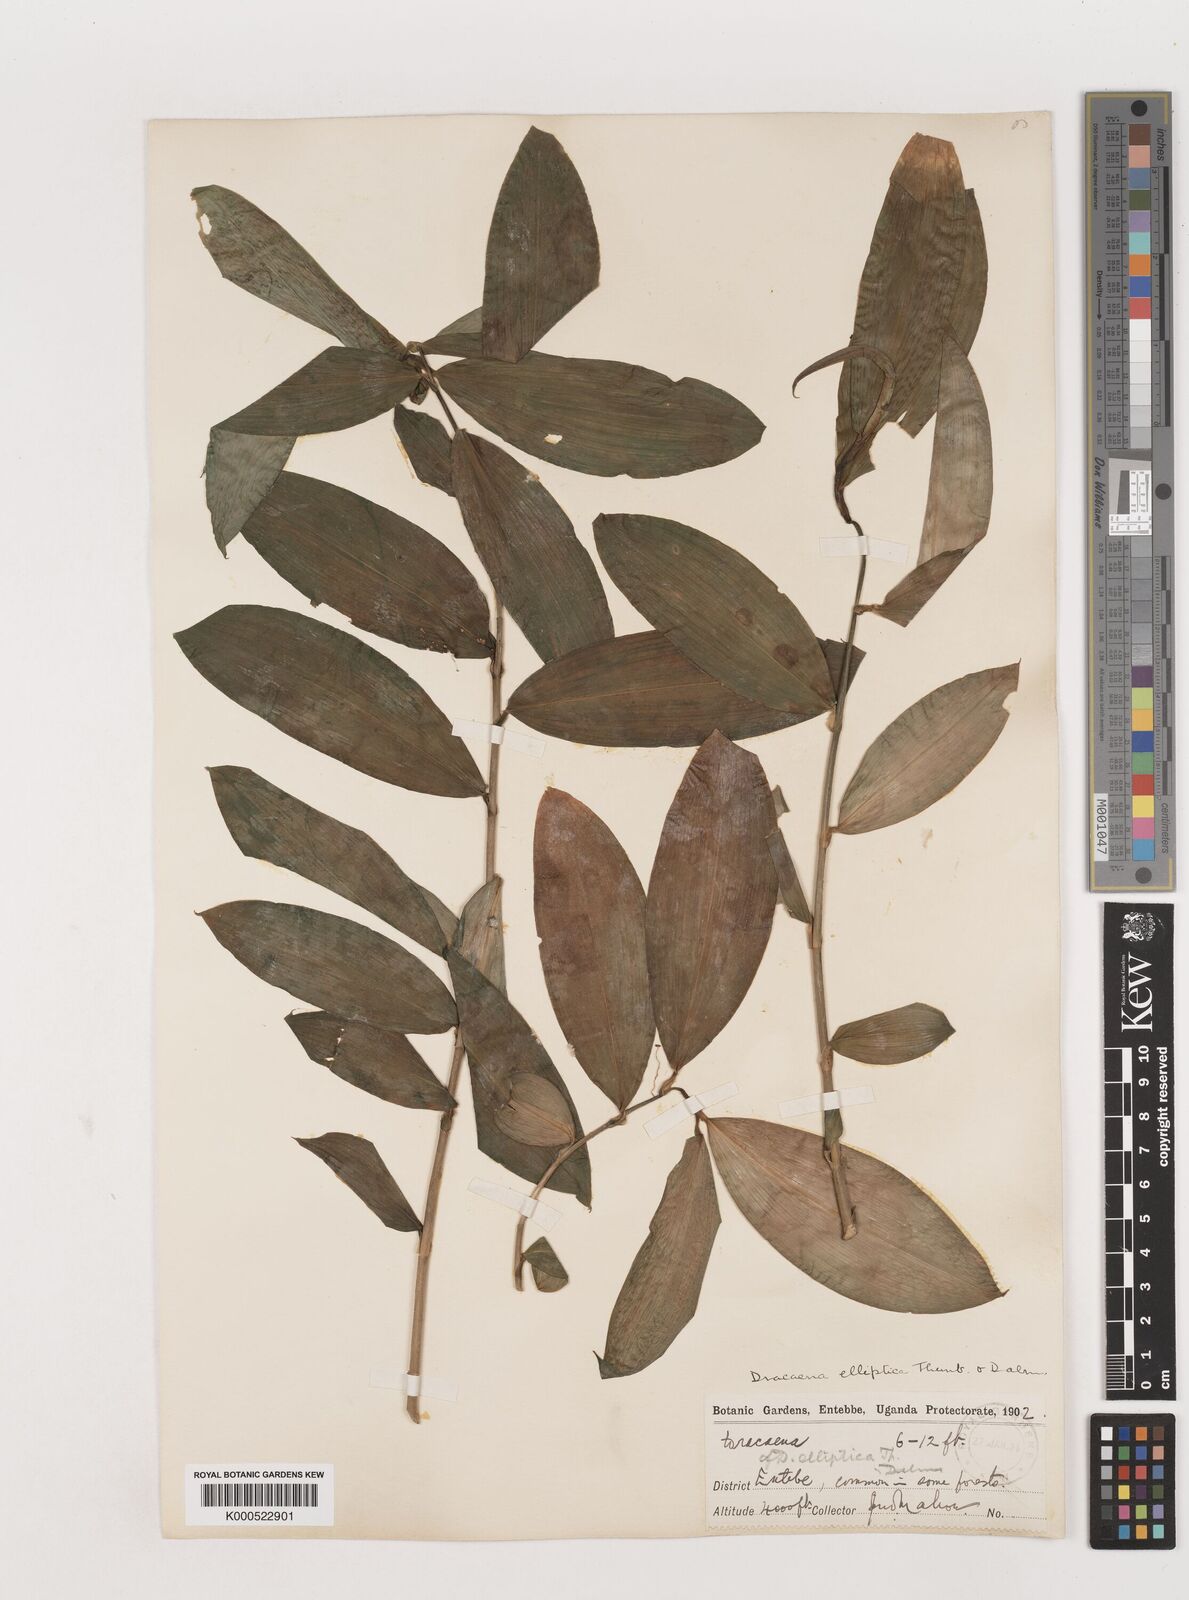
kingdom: Plantae
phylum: Tracheophyta
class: Liliopsida
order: Asparagales
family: Asparagaceae
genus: Dracaena
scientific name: Dracaena laxissima
